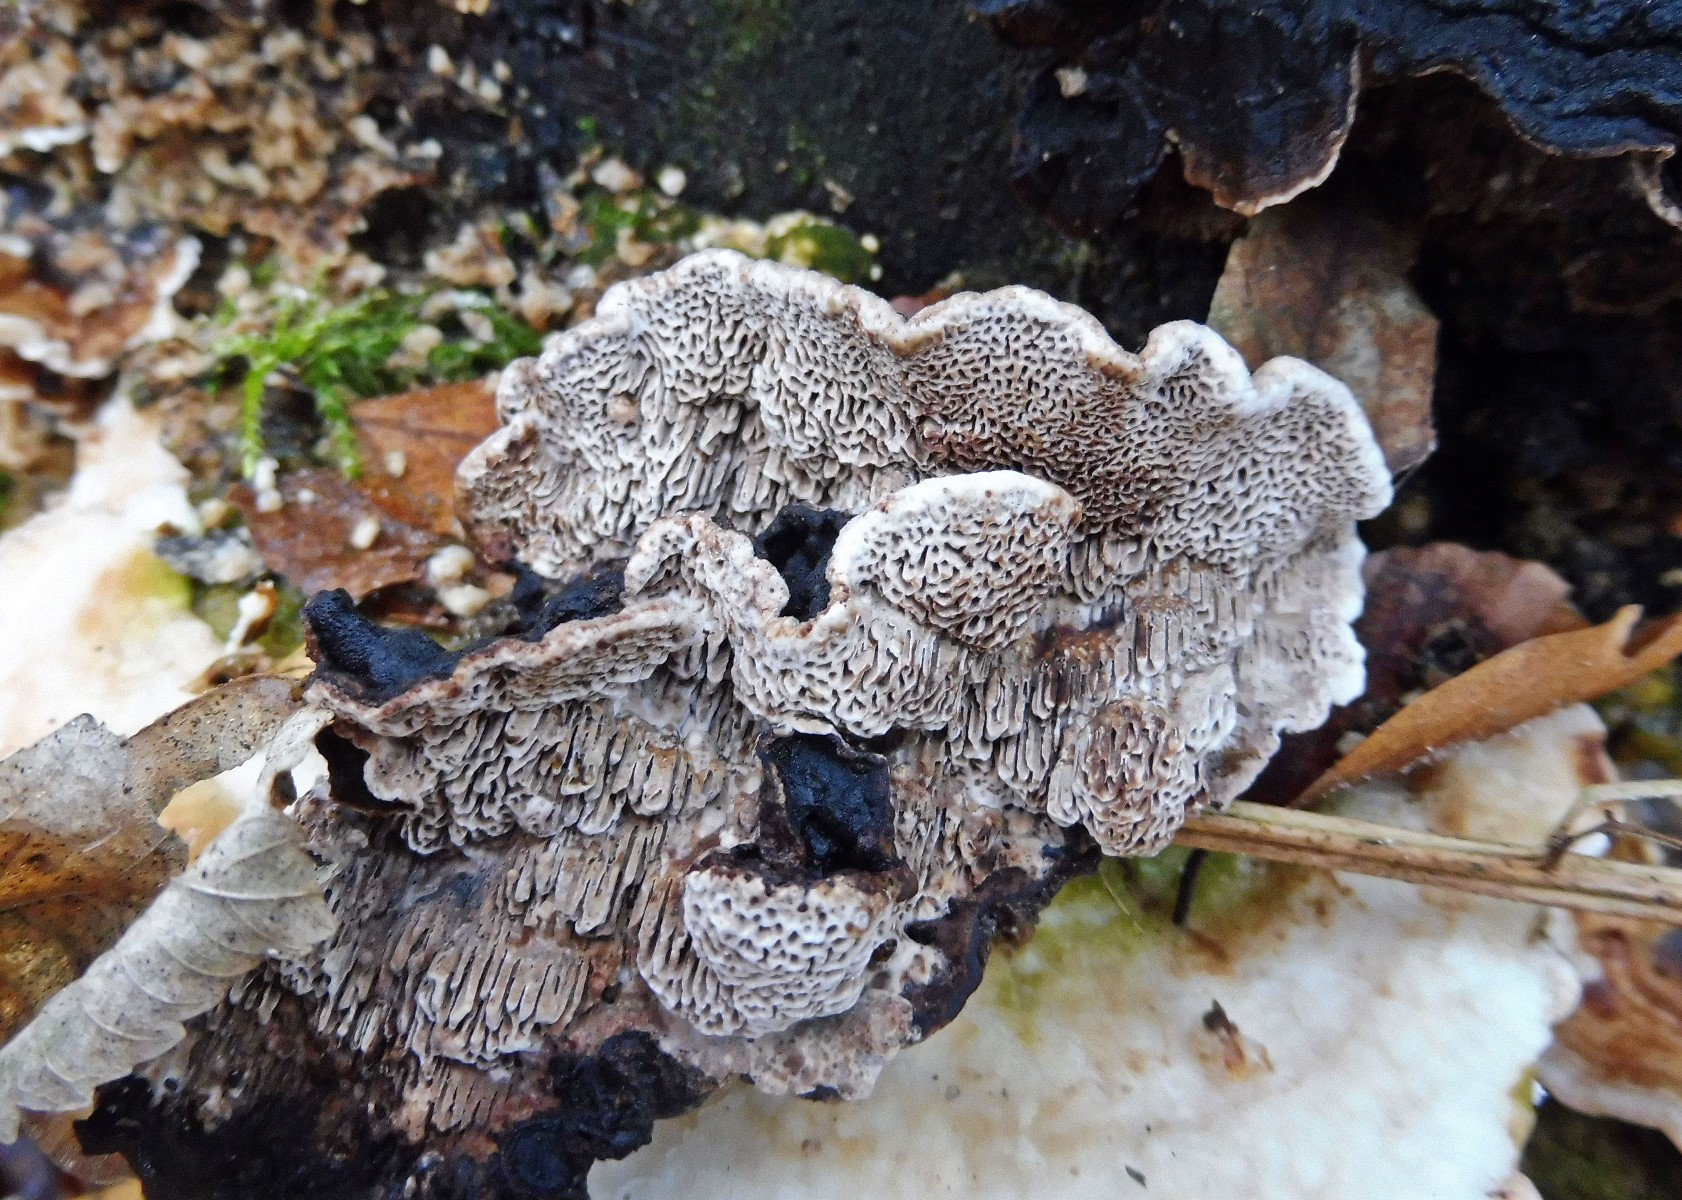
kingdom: Fungi
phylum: Basidiomycota
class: Agaricomycetes
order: Polyporales
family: Polyporaceae
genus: Podofomes
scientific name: Podofomes mollis
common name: blød begporesvamp
